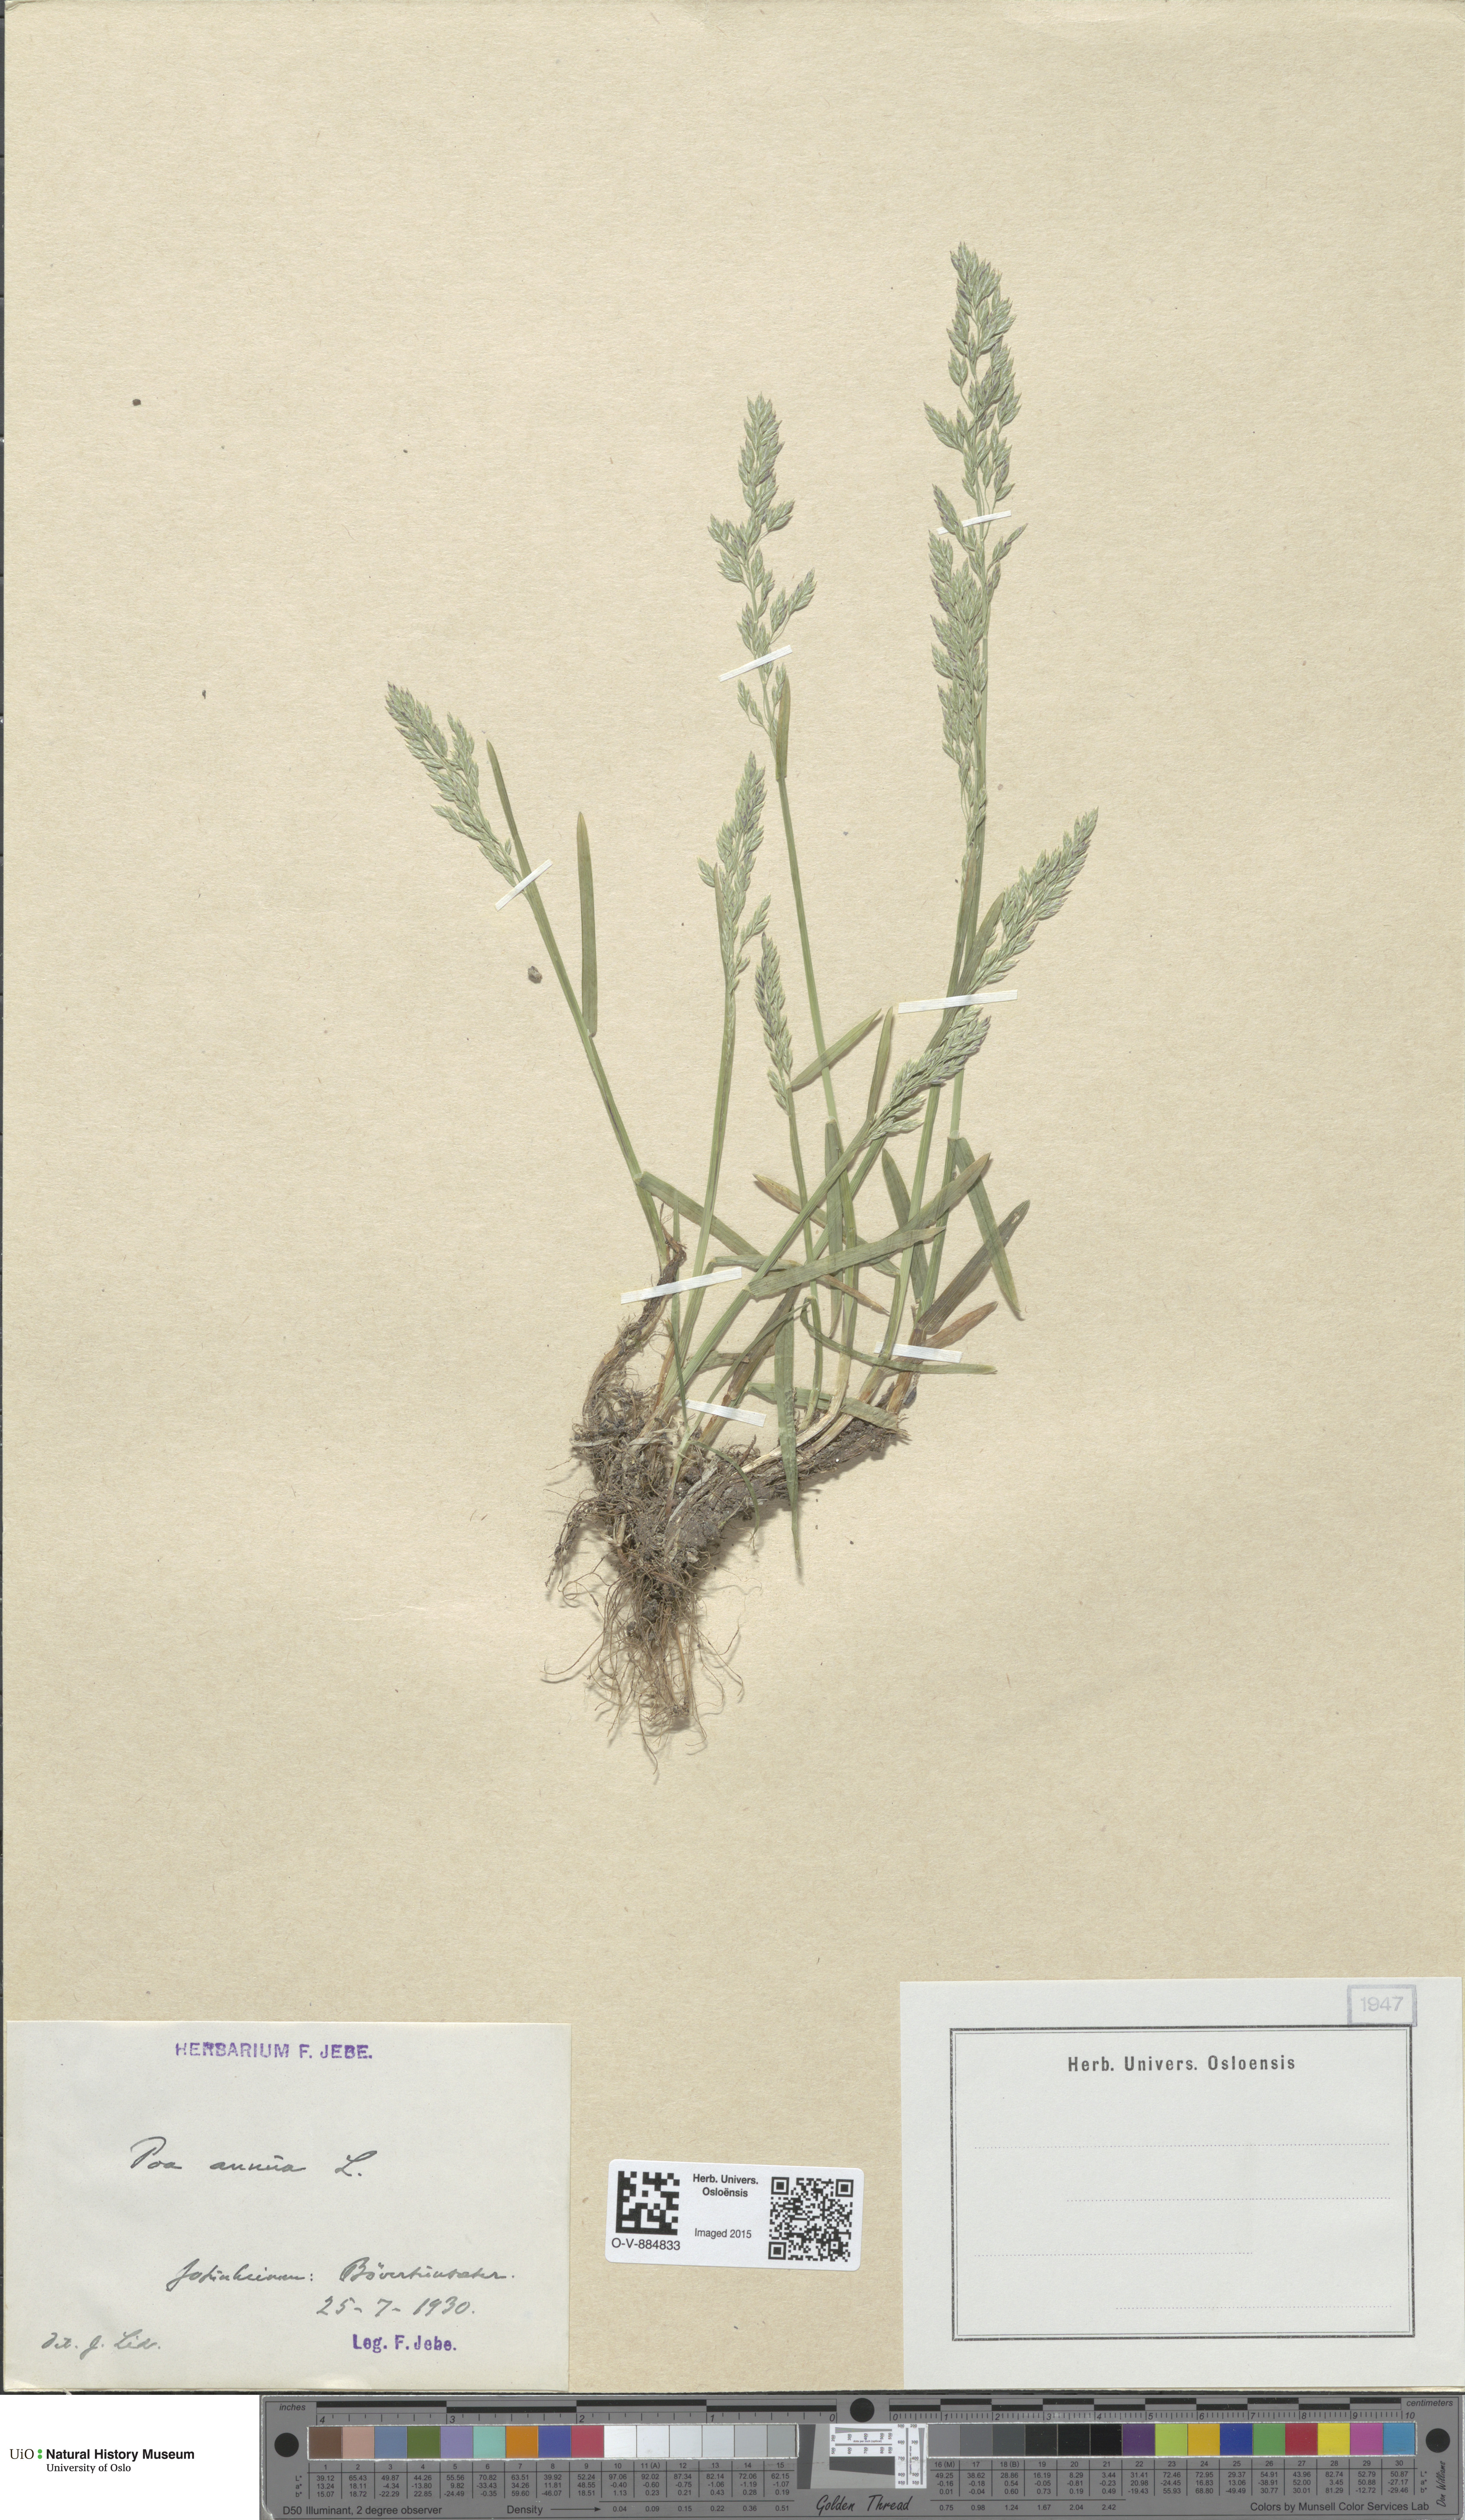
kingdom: Plantae
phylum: Tracheophyta
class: Liliopsida
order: Poales
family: Poaceae
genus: Poa
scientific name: Poa annua
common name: Annual bluegrass
